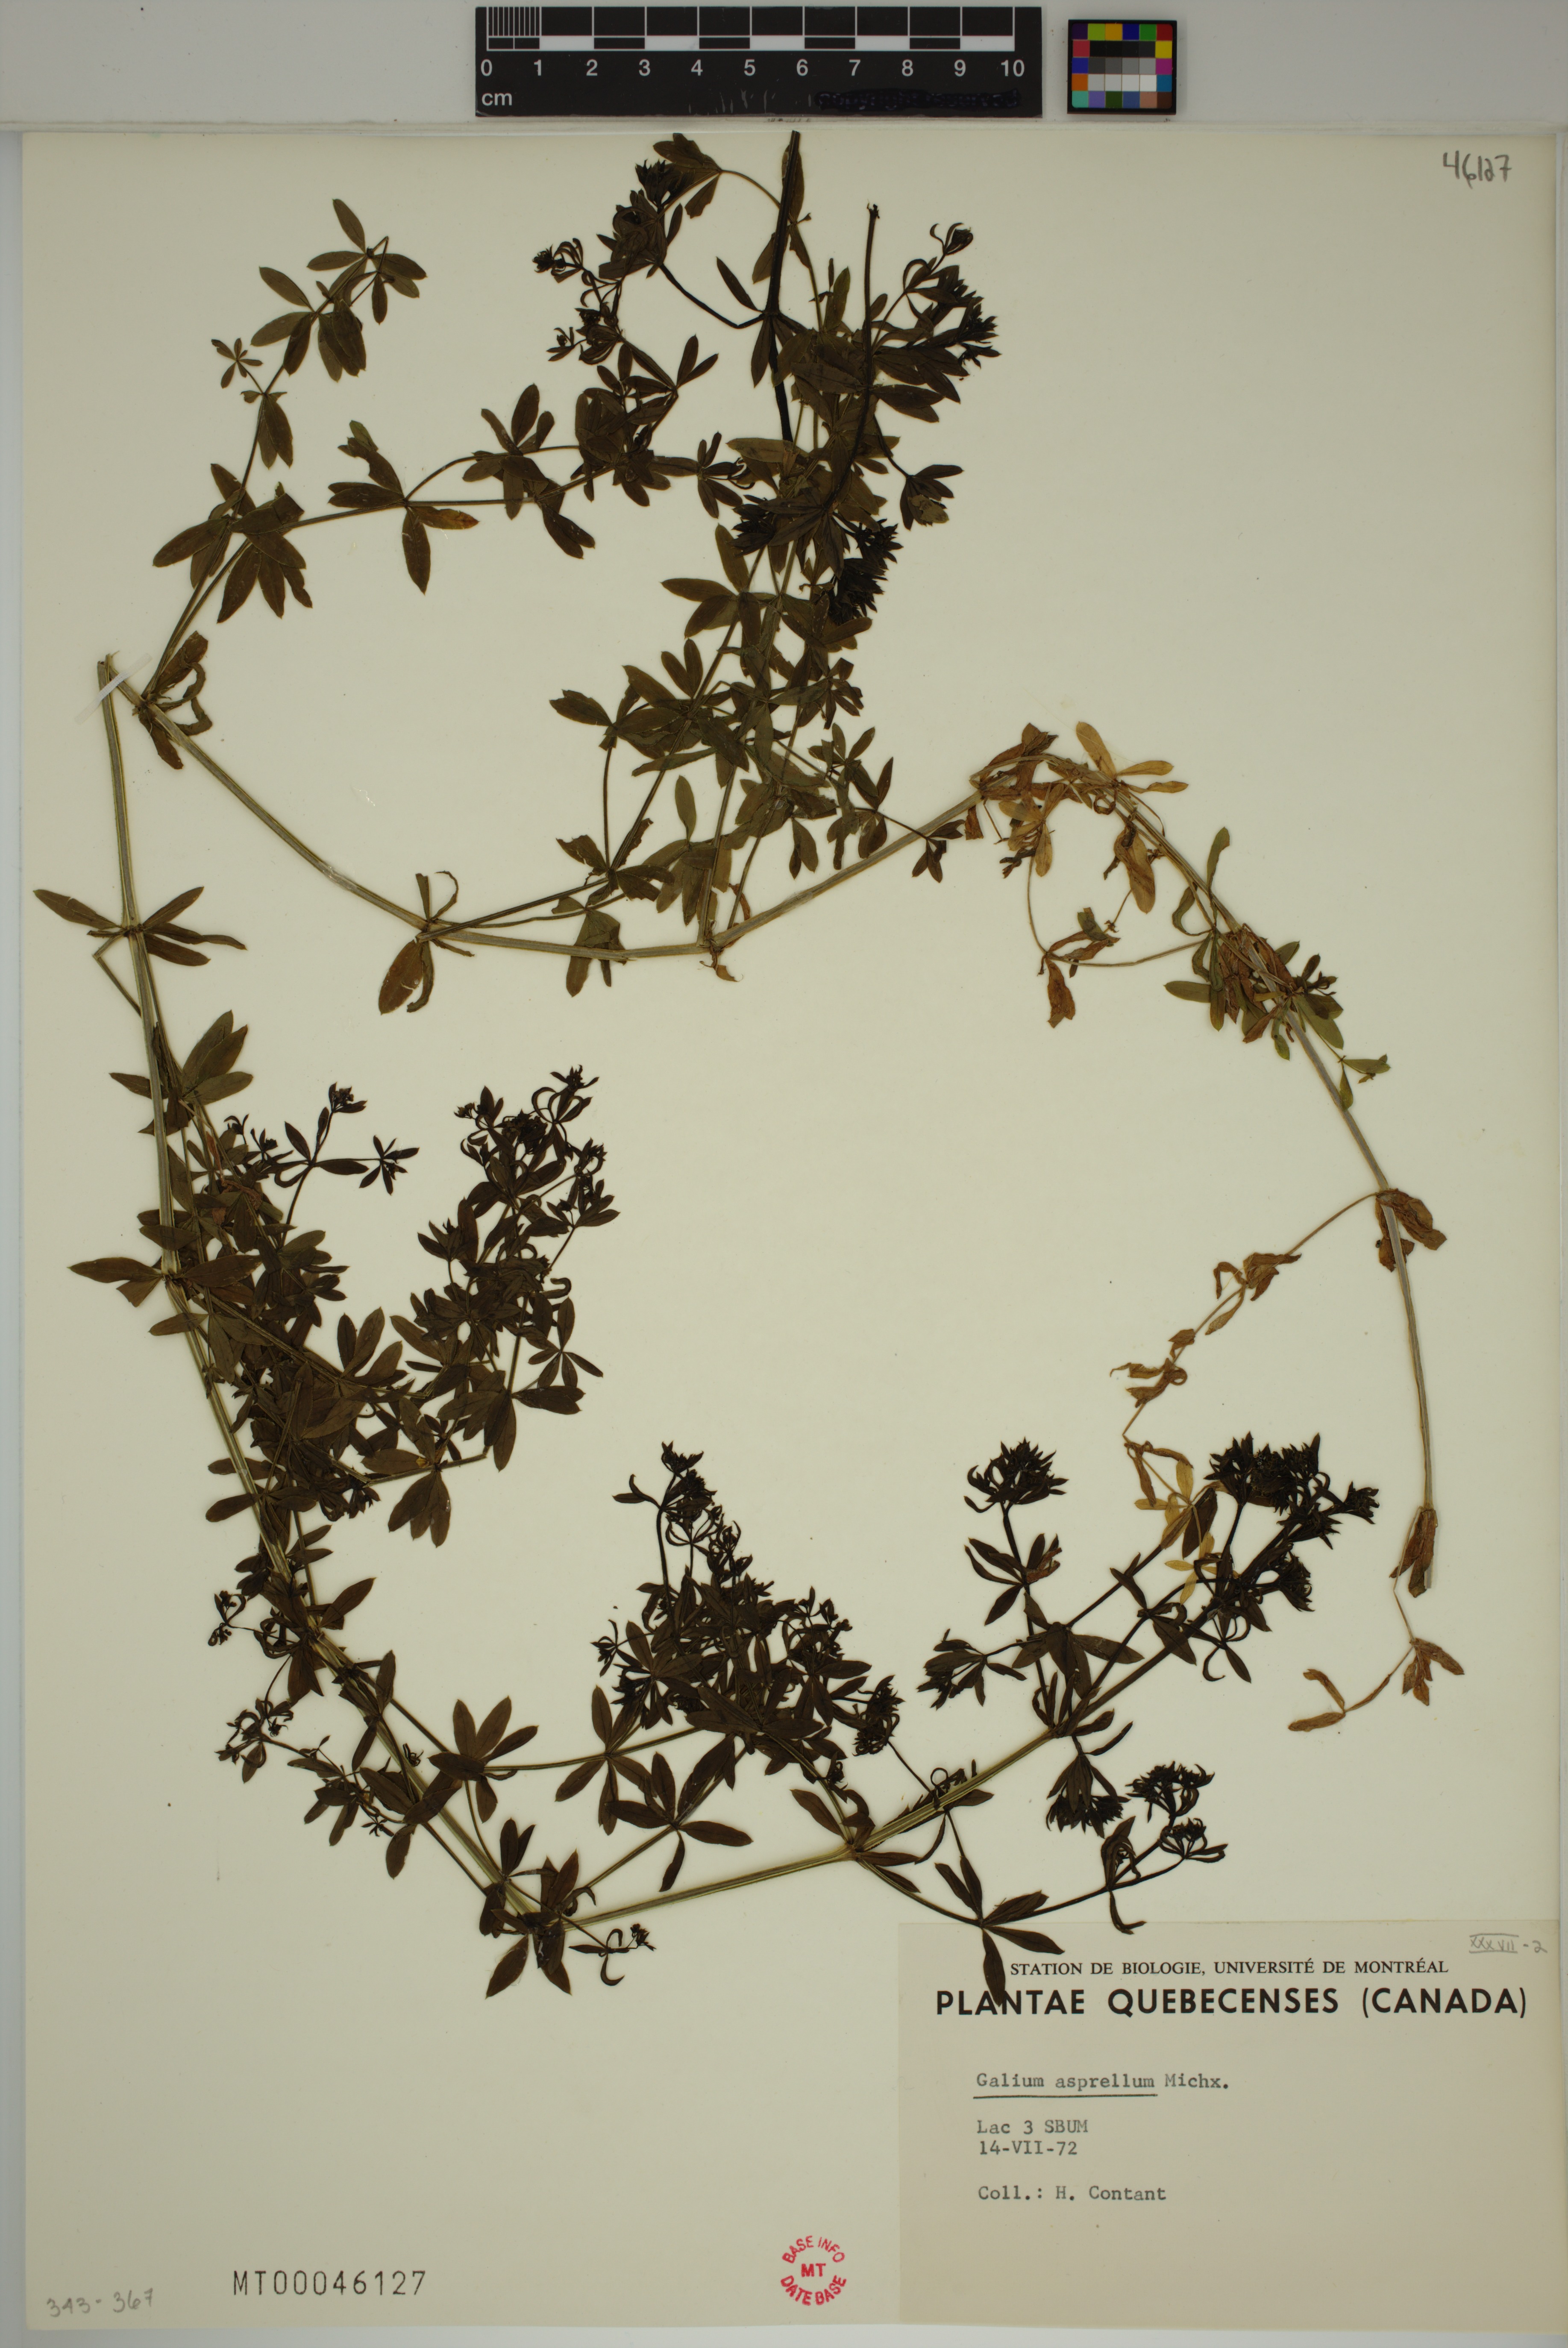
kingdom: Plantae
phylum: Tracheophyta
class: Magnoliopsida
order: Gentianales
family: Rubiaceae
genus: Galium
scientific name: Galium asprellum
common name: Rough bedstraw
